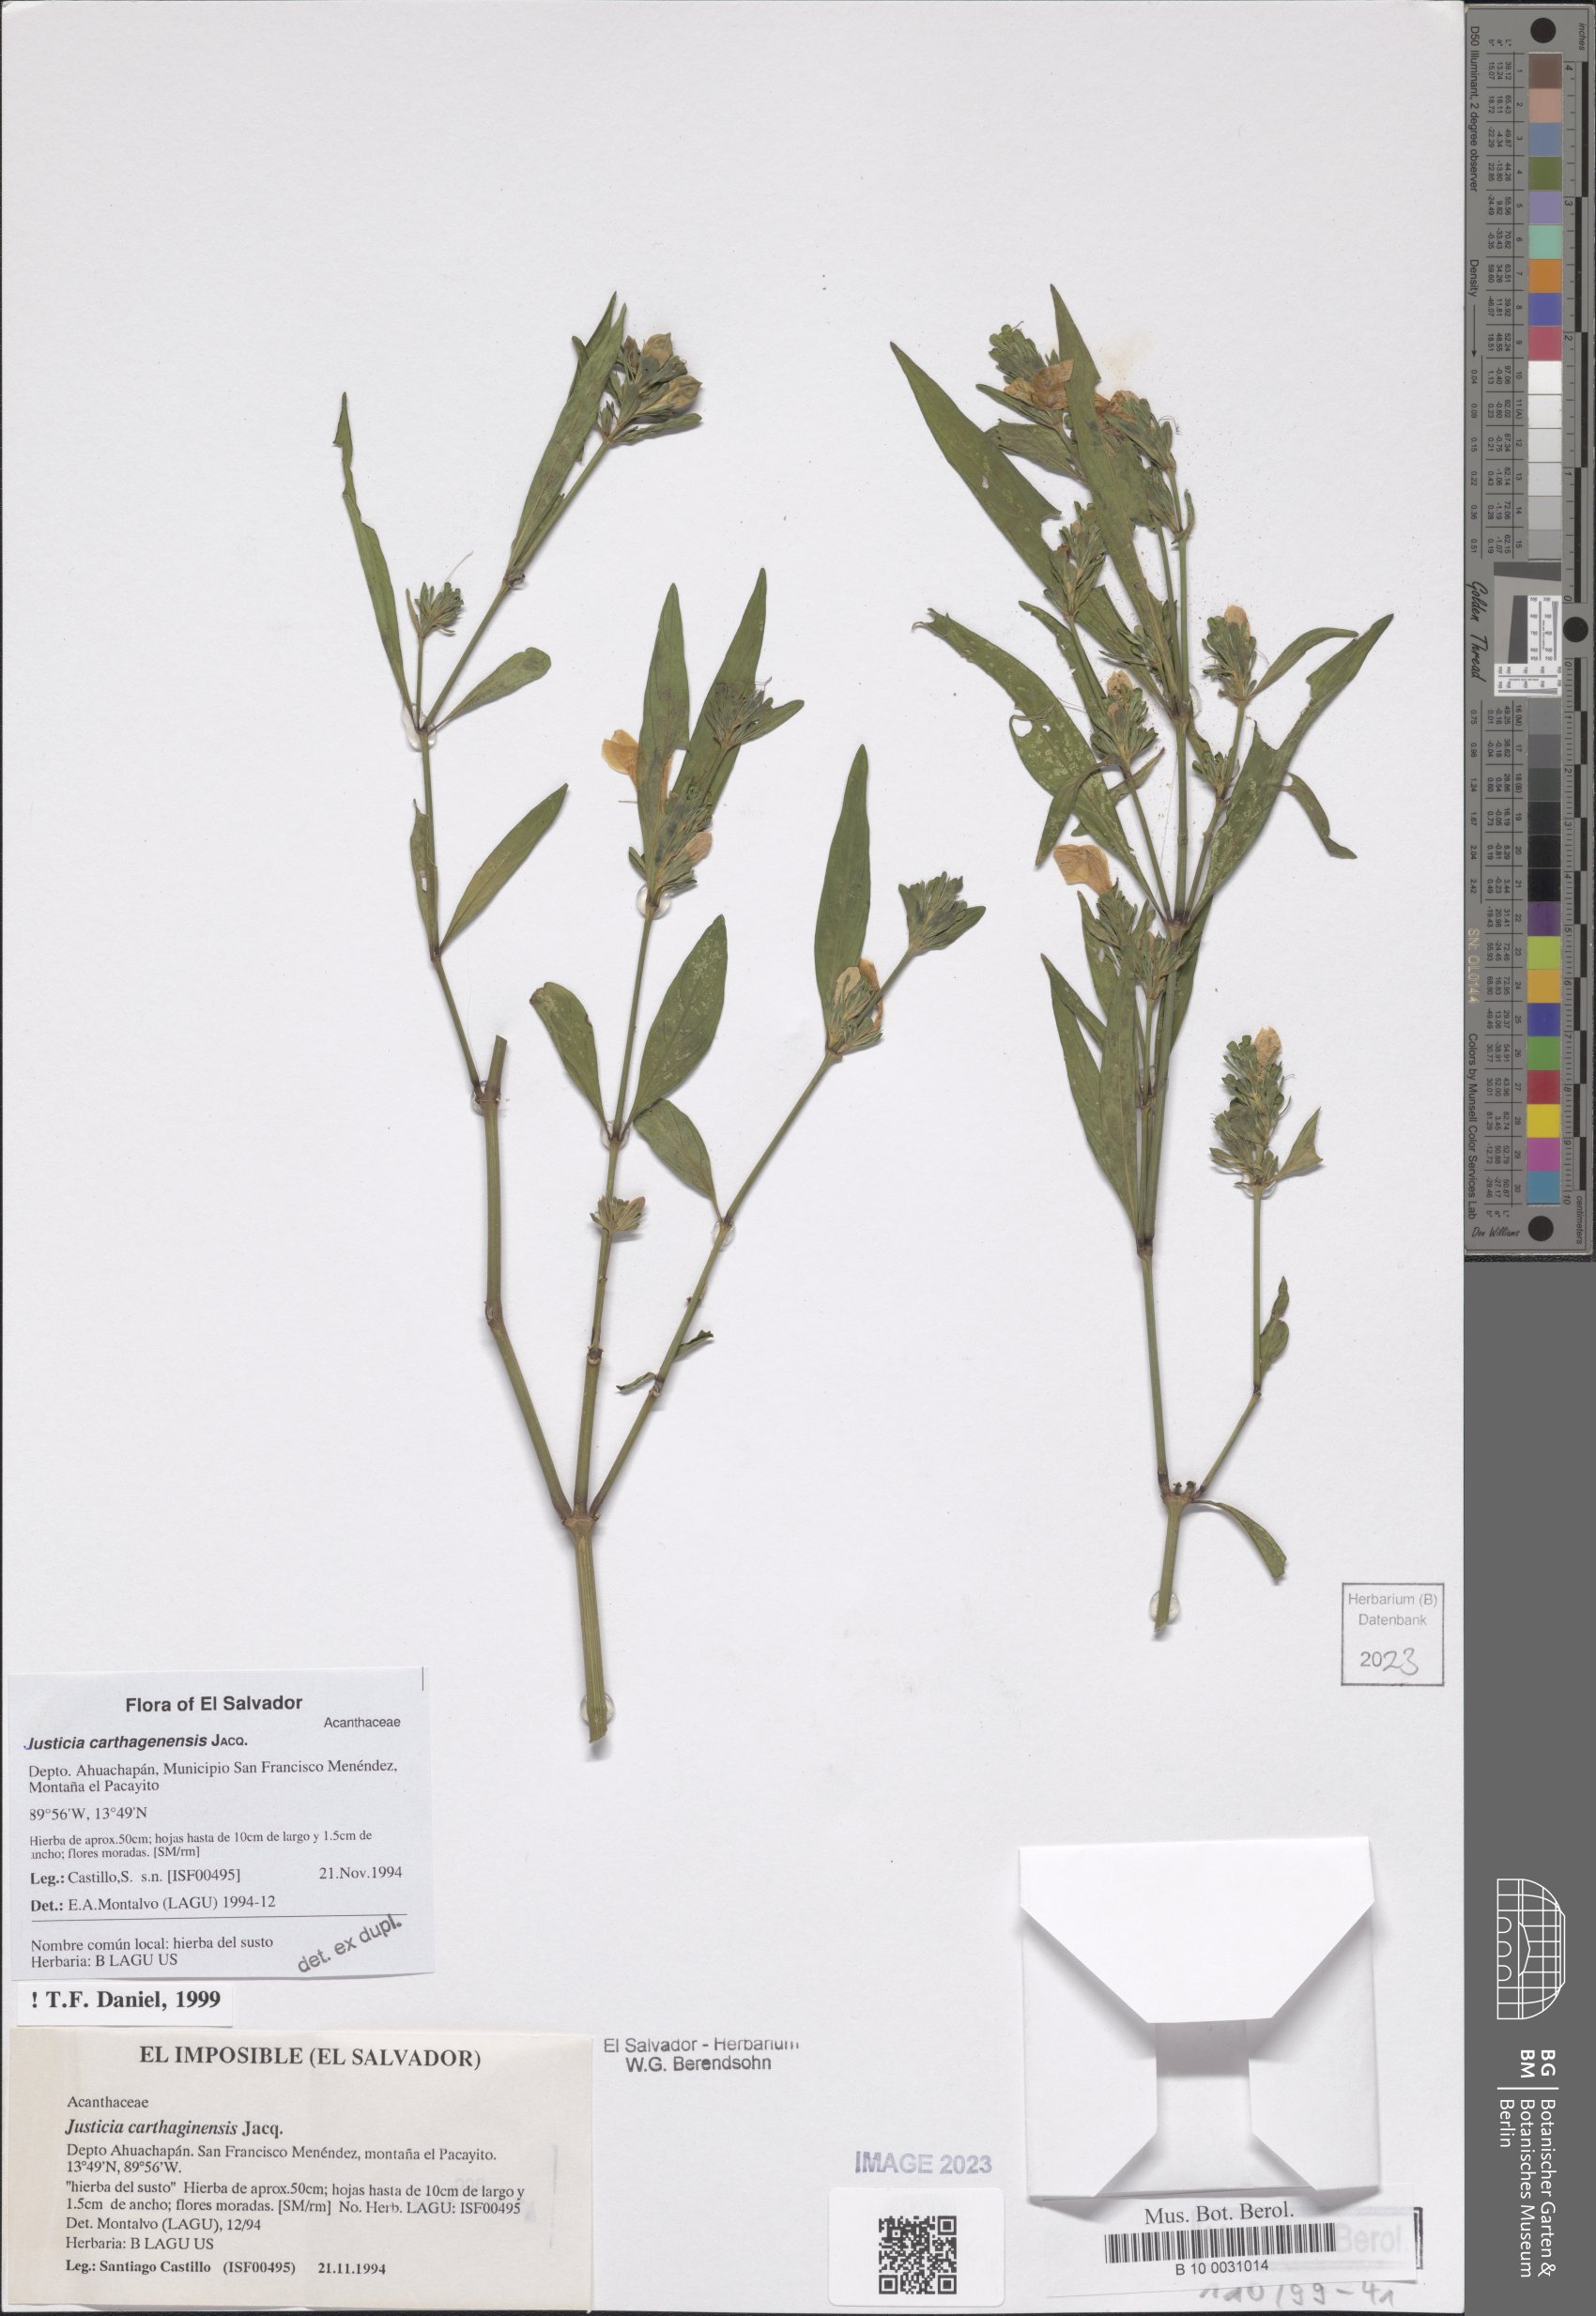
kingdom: Plantae
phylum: Tracheophyta
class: Magnoliopsida
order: Lamiales
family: Acanthaceae
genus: Justicia
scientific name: Justicia carthagenensis
